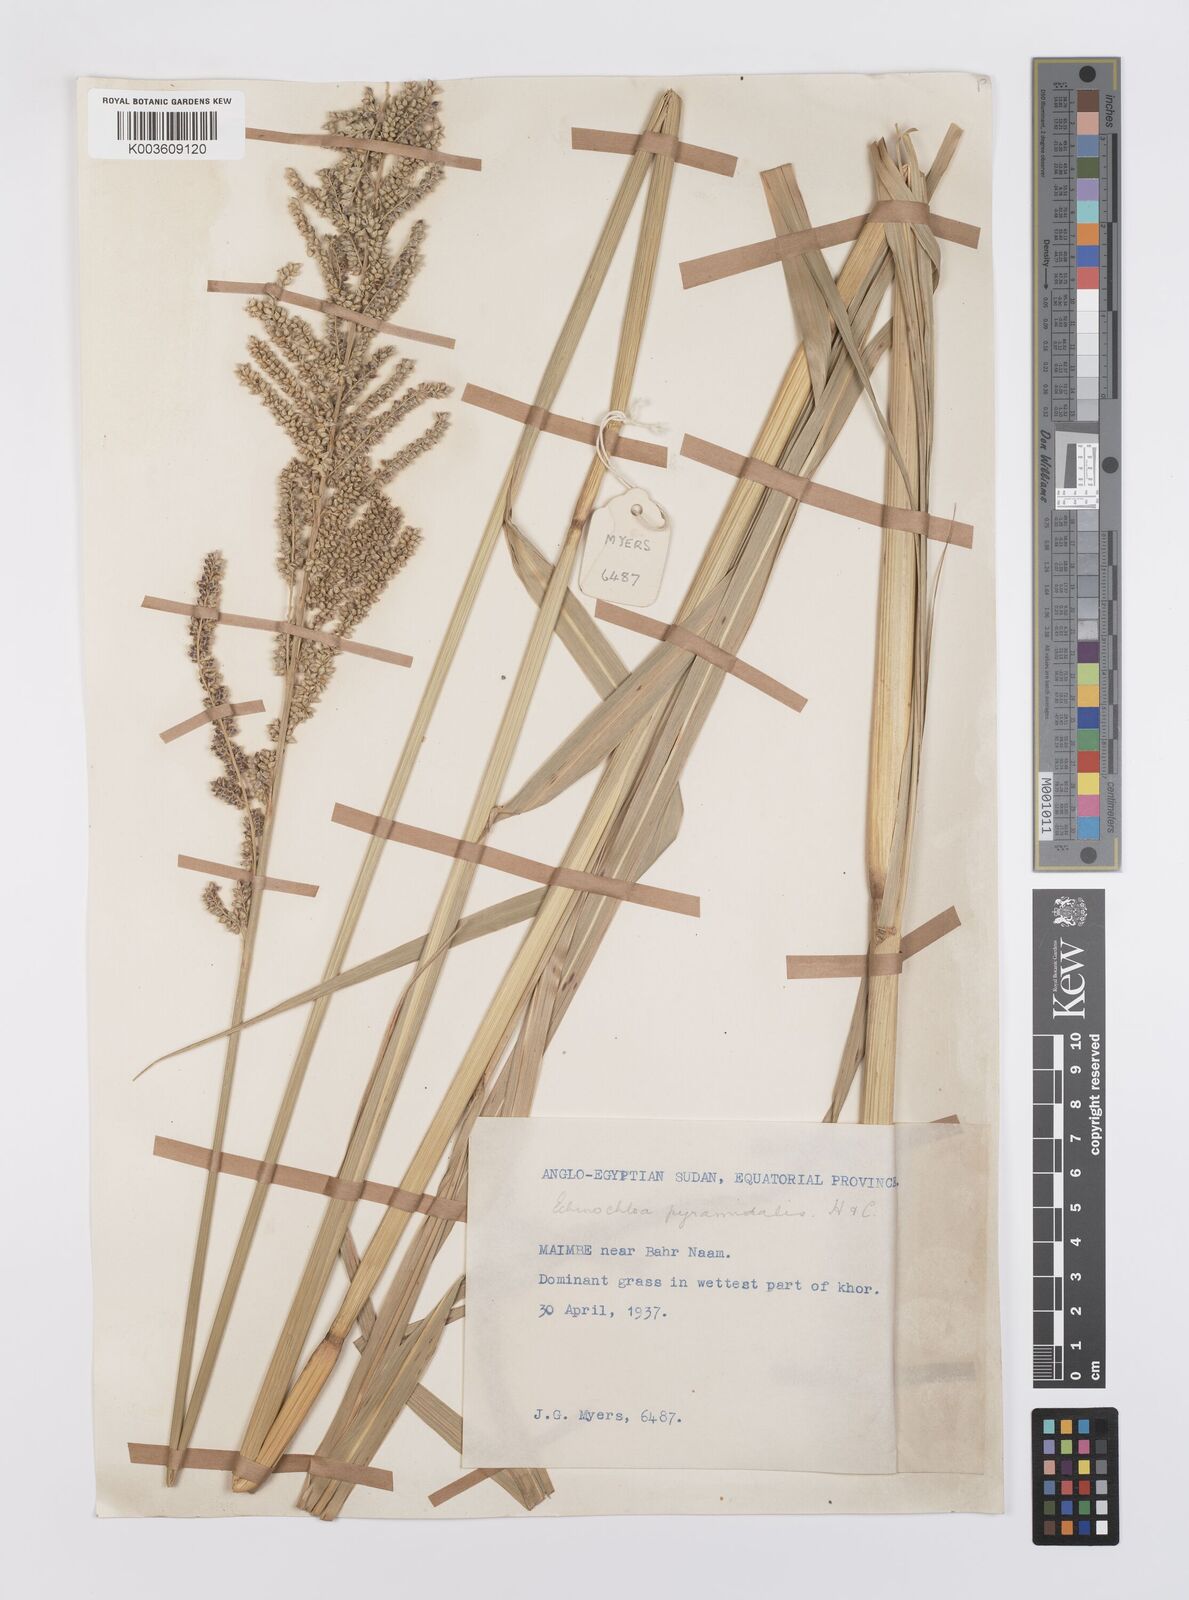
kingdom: Plantae
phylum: Tracheophyta
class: Liliopsida
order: Poales
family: Poaceae
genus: Echinochloa
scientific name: Echinochloa pyramidalis
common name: Antelope grass
